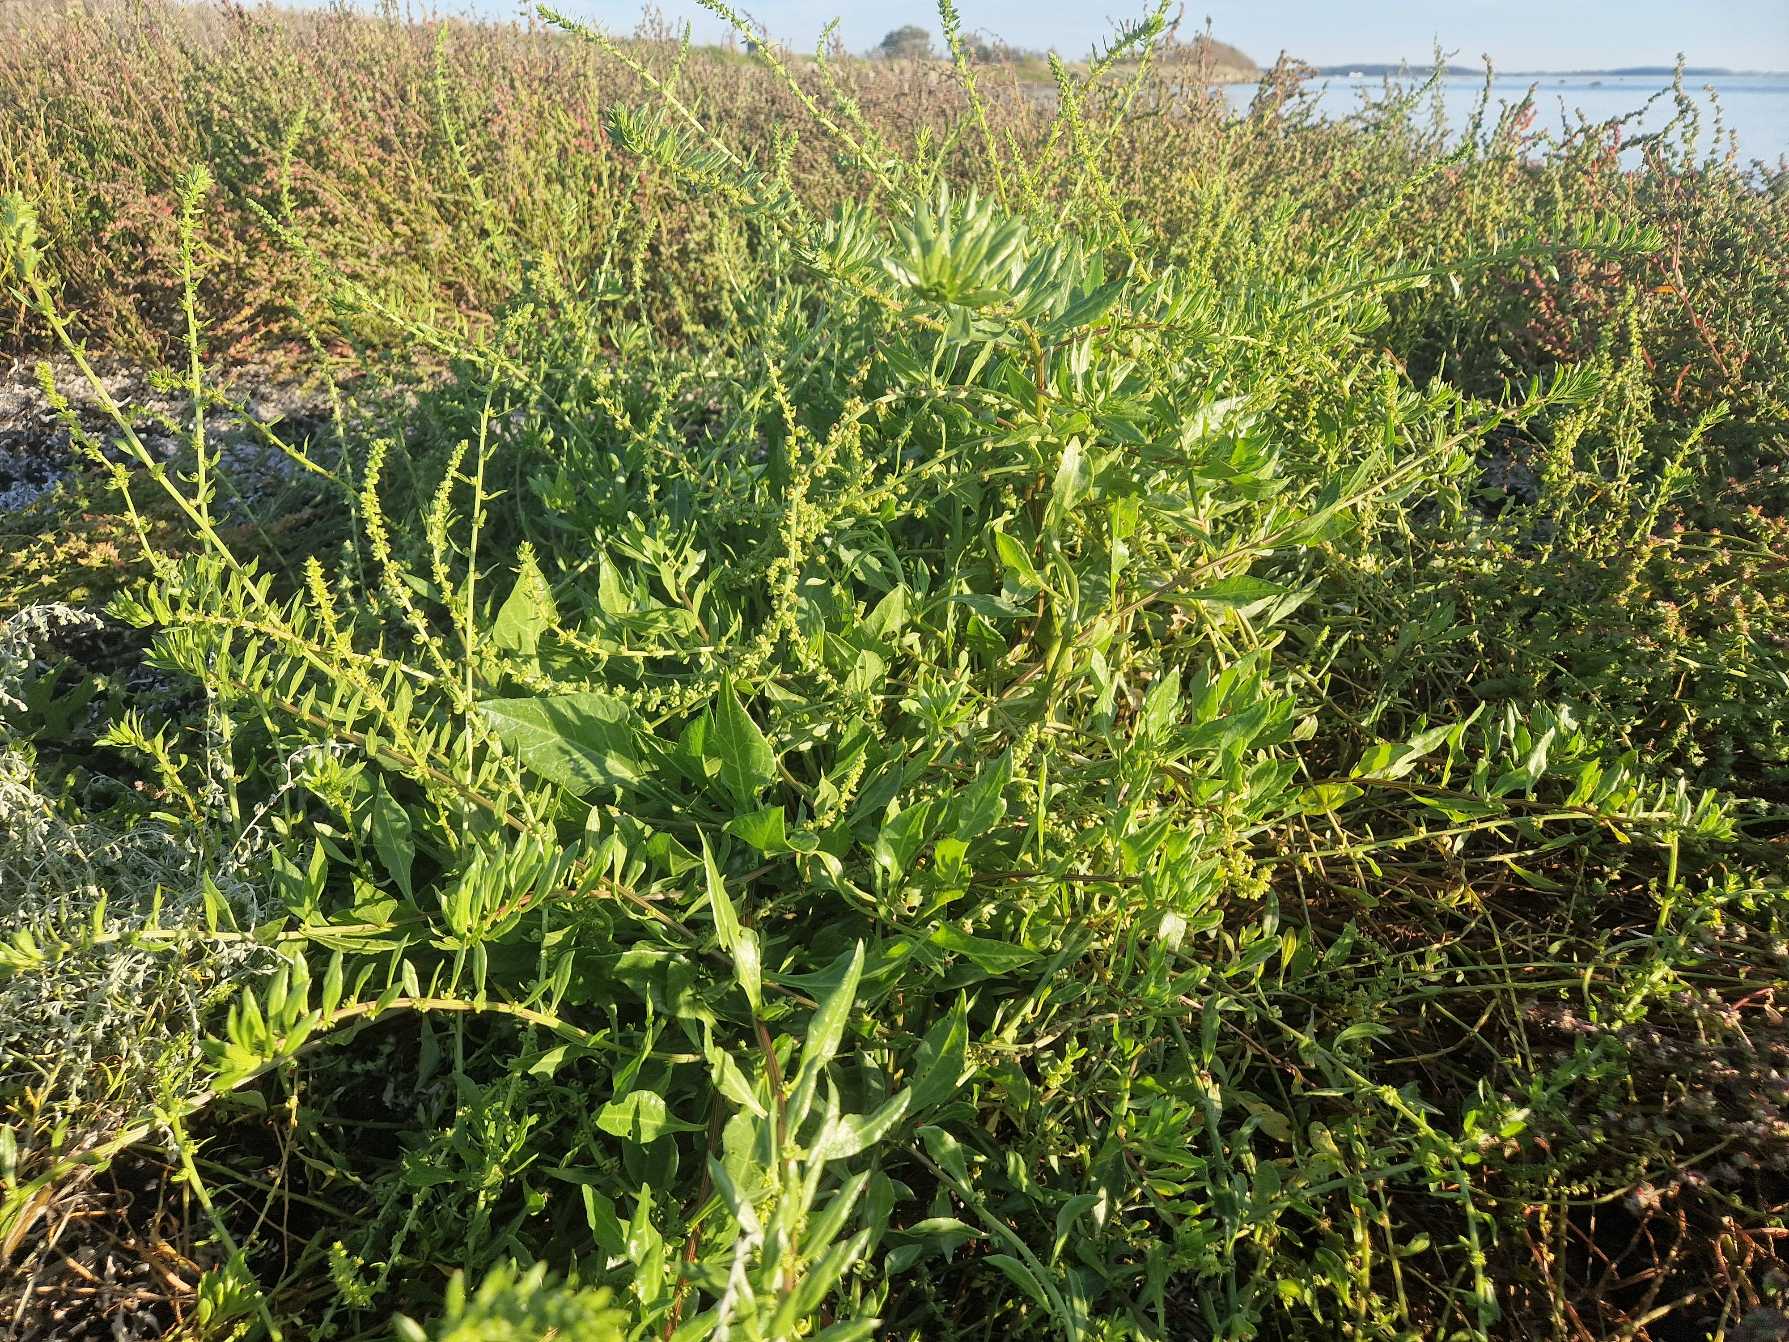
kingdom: Plantae
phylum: Tracheophyta
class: Magnoliopsida
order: Caryophyllales
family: Amaranthaceae
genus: Beta
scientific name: Beta maritima
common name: Strand-bede
